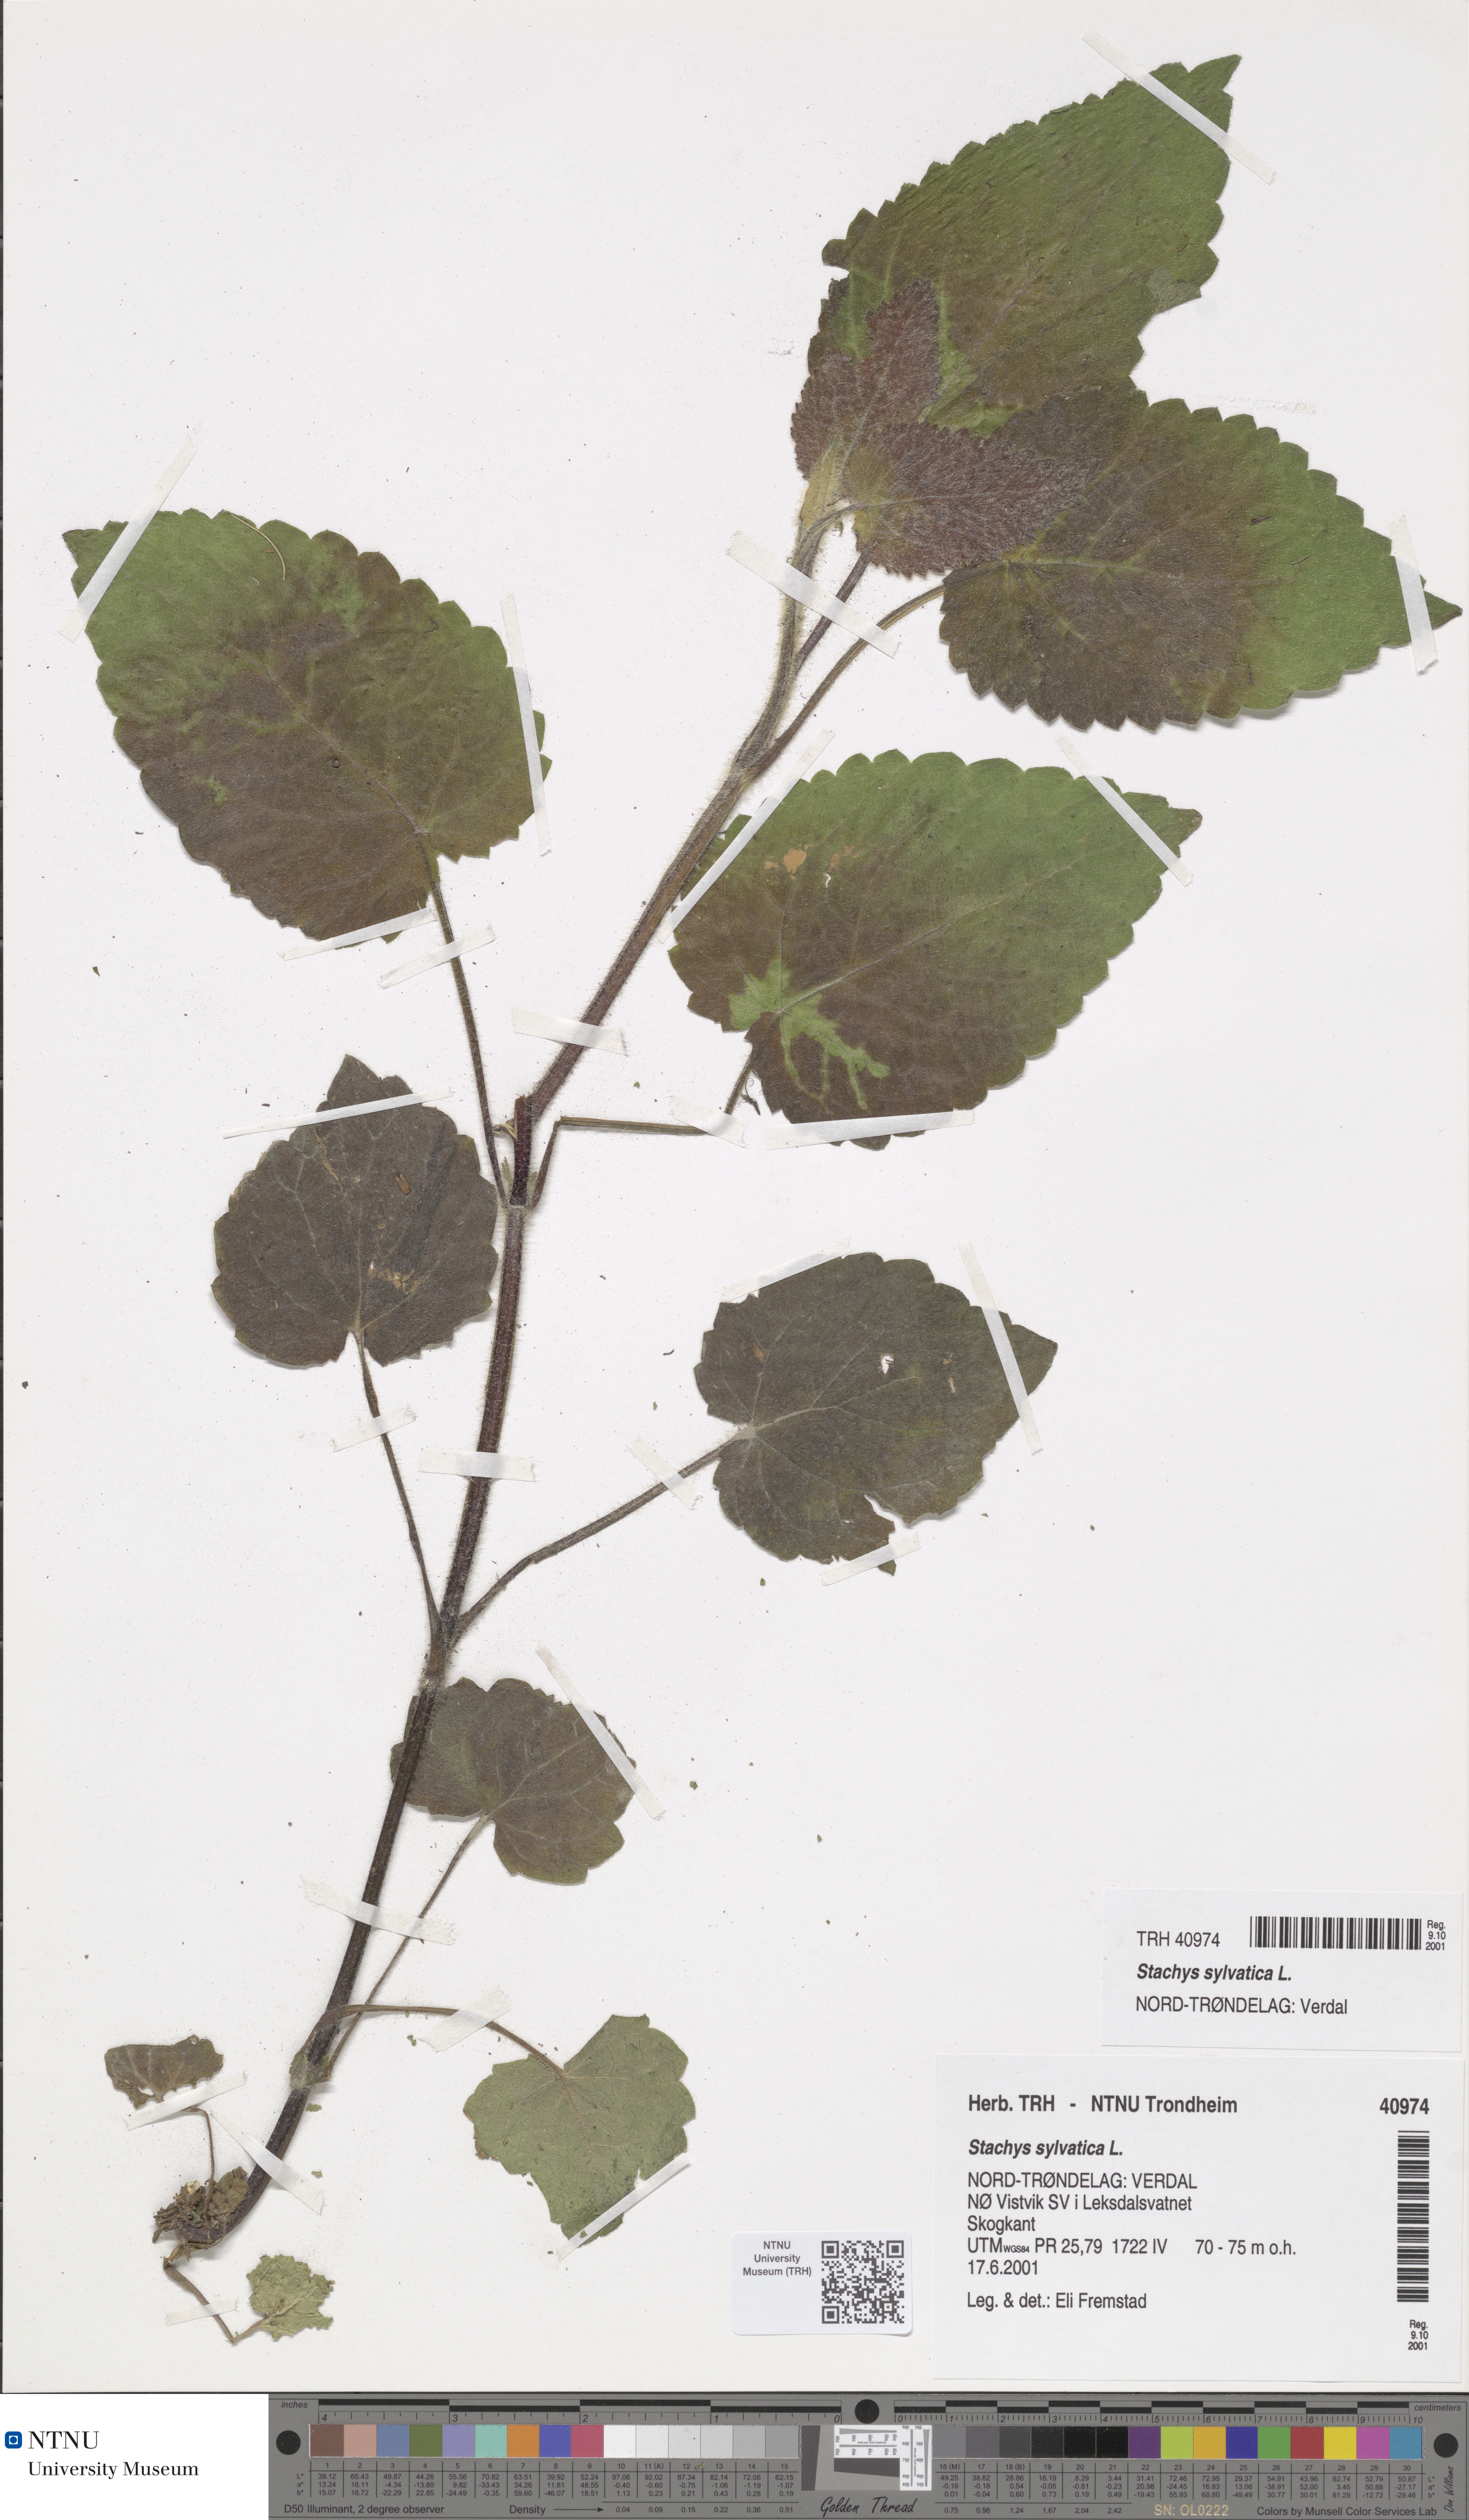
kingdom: Plantae
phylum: Tracheophyta
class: Magnoliopsida
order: Lamiales
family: Lamiaceae
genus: Stachys
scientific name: Stachys sylvatica
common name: Hedge woundwort
